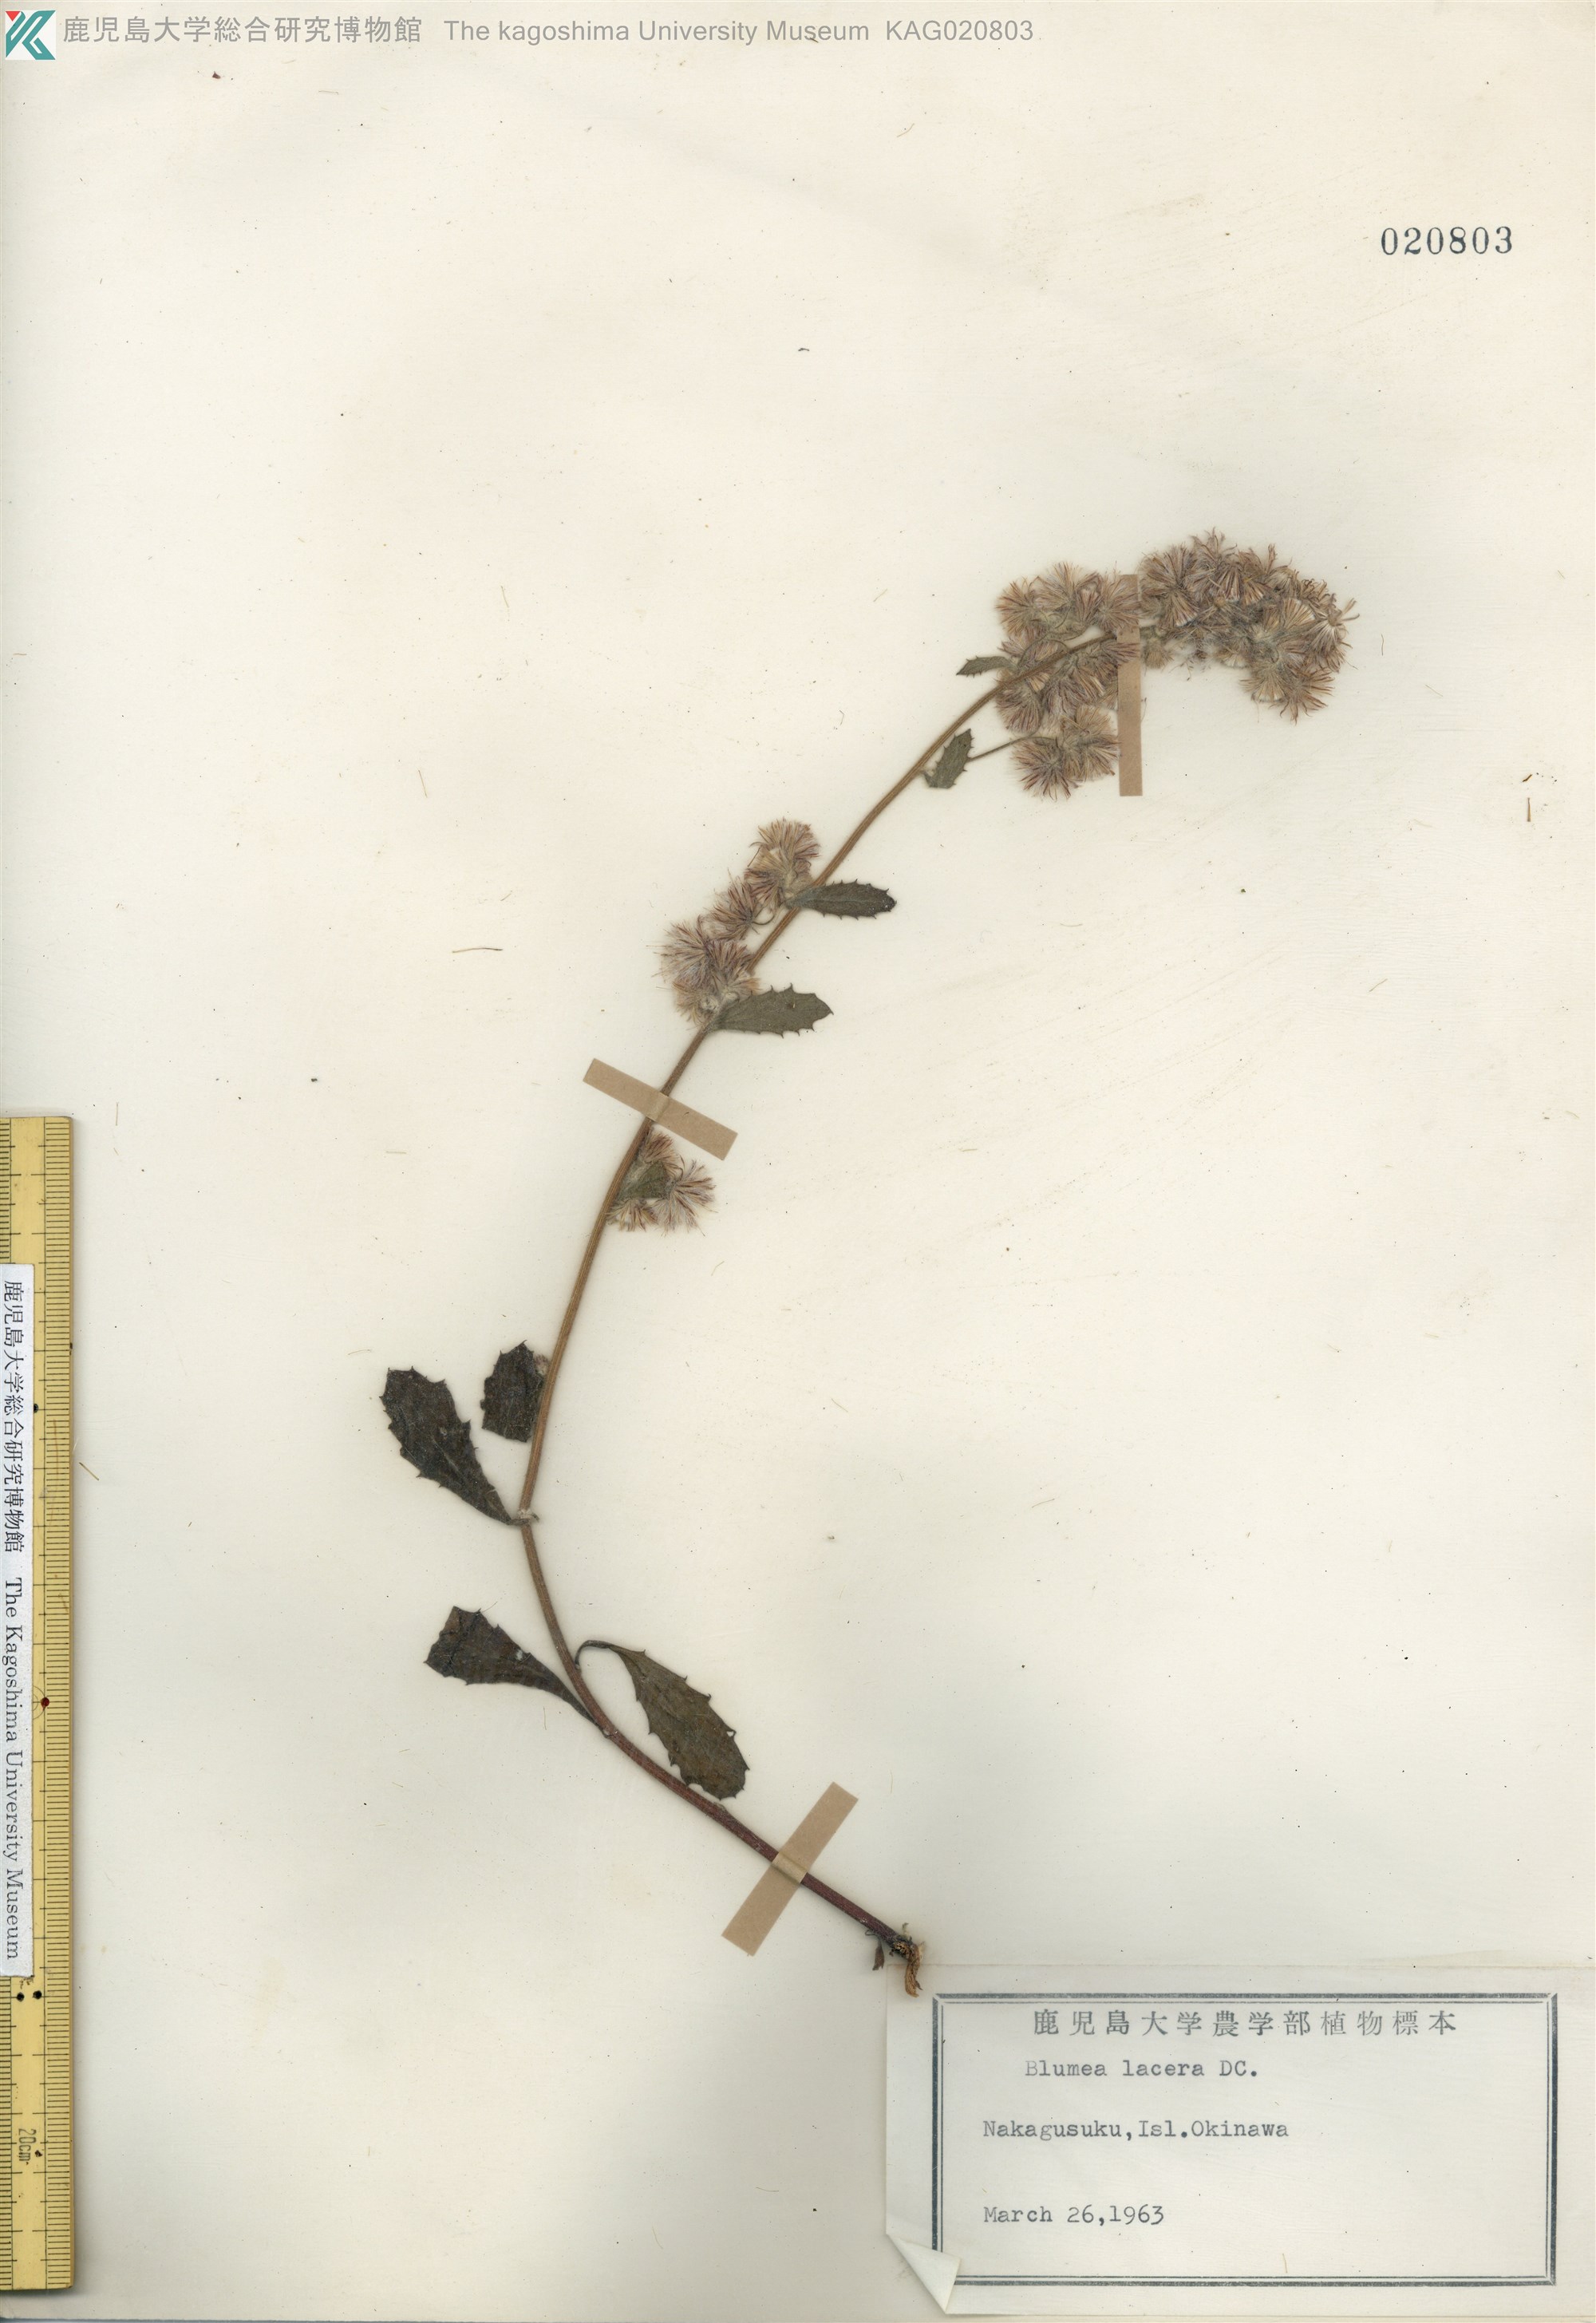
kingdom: Plantae
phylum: Tracheophyta
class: Magnoliopsida
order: Asterales
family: Asteraceae
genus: Blumea
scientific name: Blumea lacera
